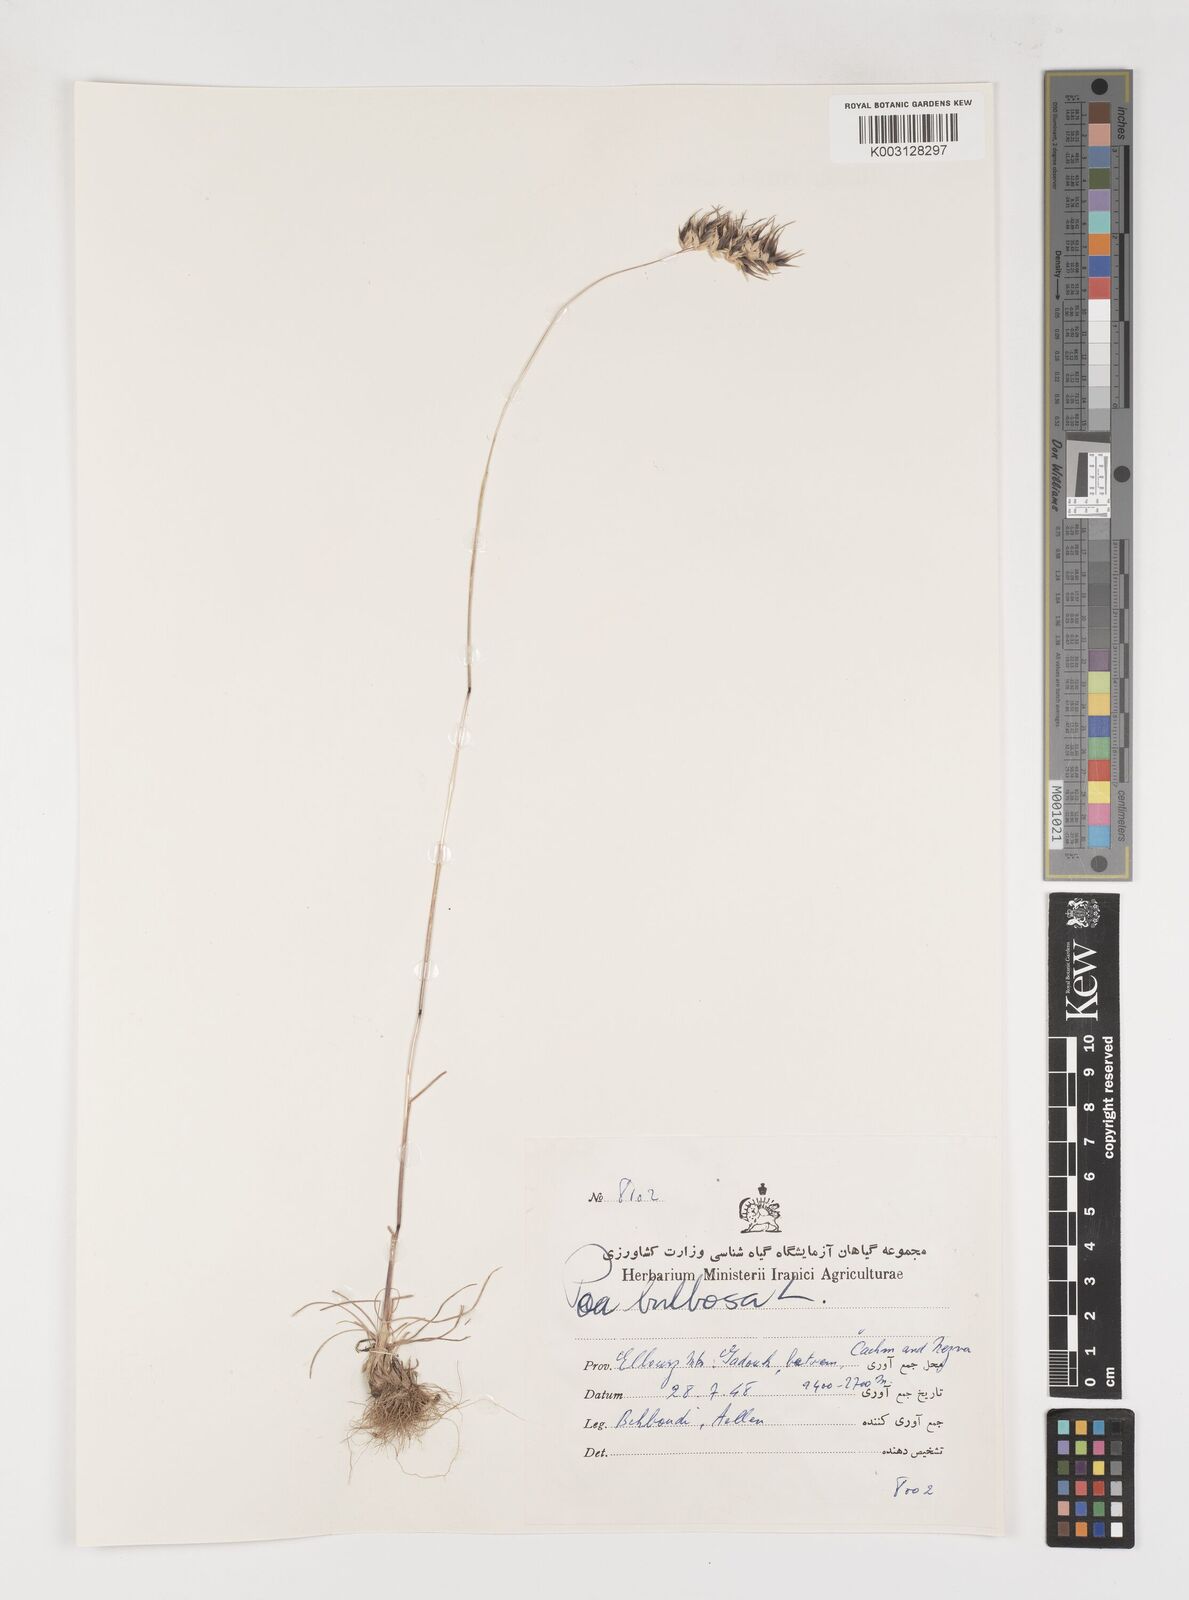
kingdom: Plantae
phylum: Tracheophyta
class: Liliopsida
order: Poales
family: Poaceae
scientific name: Poaceae
